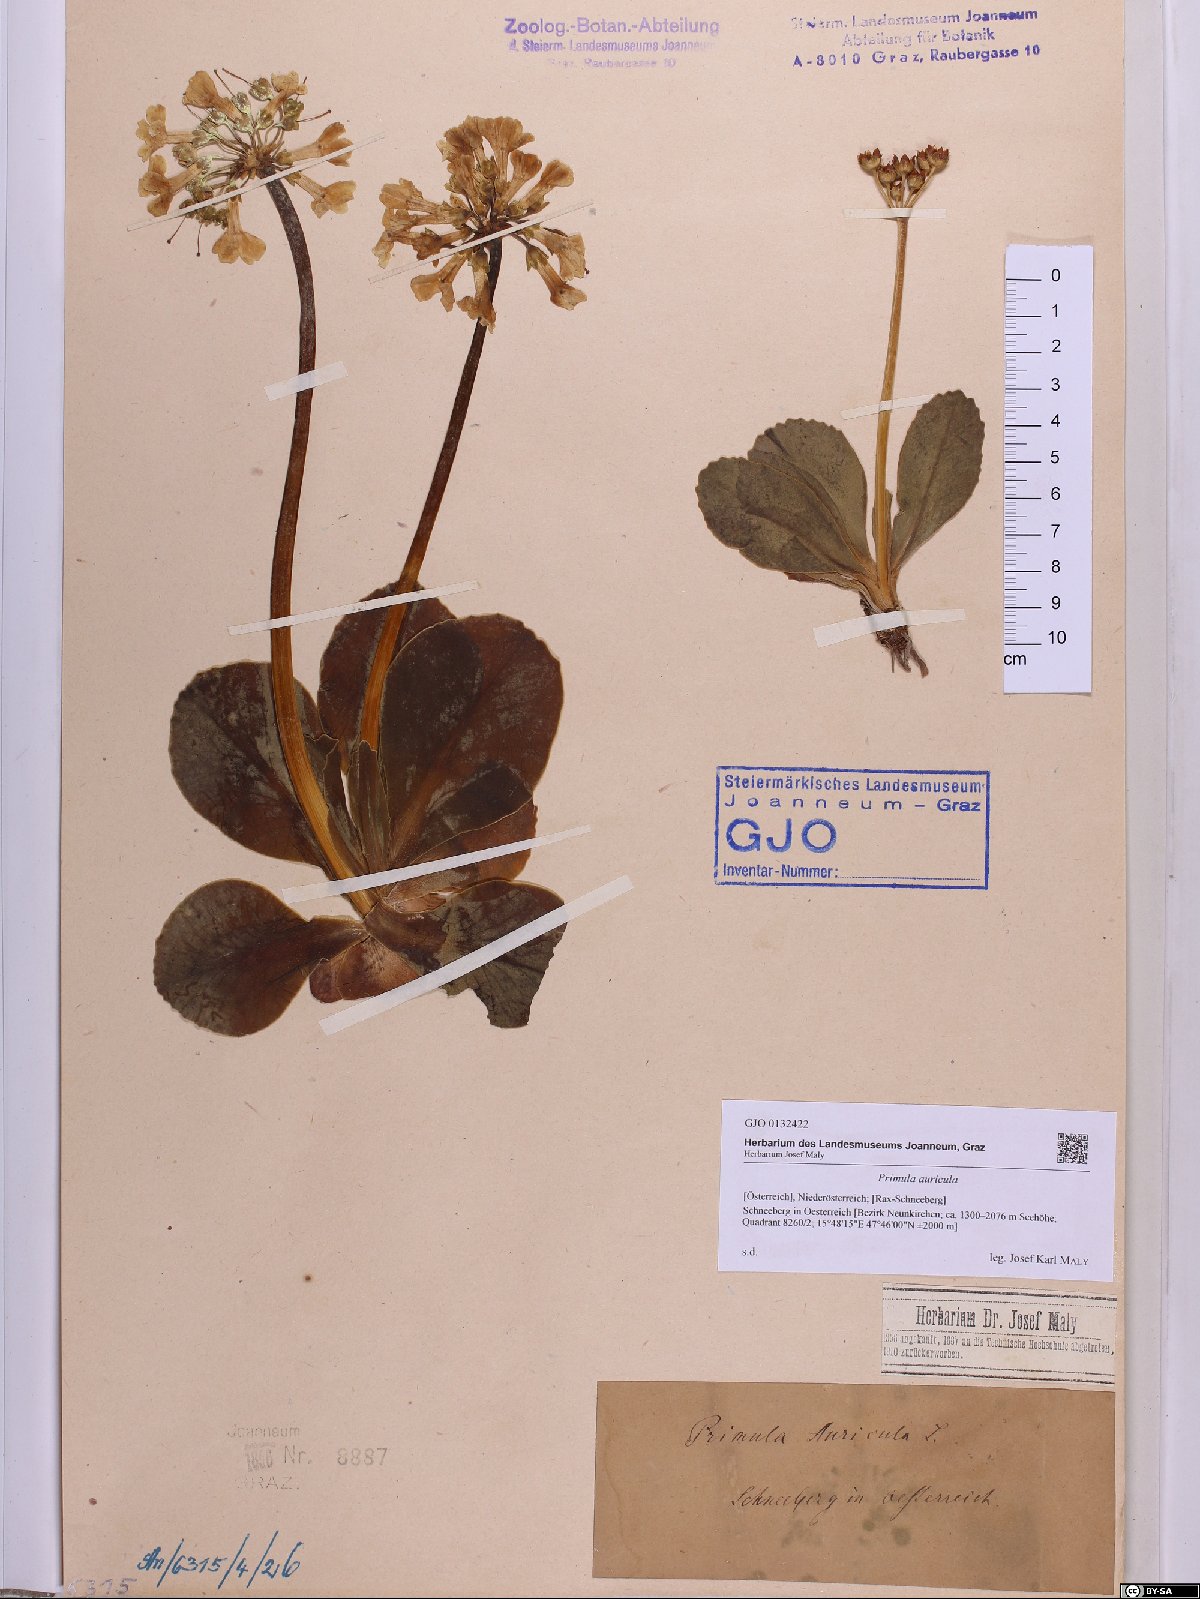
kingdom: Plantae
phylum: Tracheophyta
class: Magnoliopsida
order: Ericales
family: Primulaceae
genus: Primula
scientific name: Primula auricula
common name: Auricula
